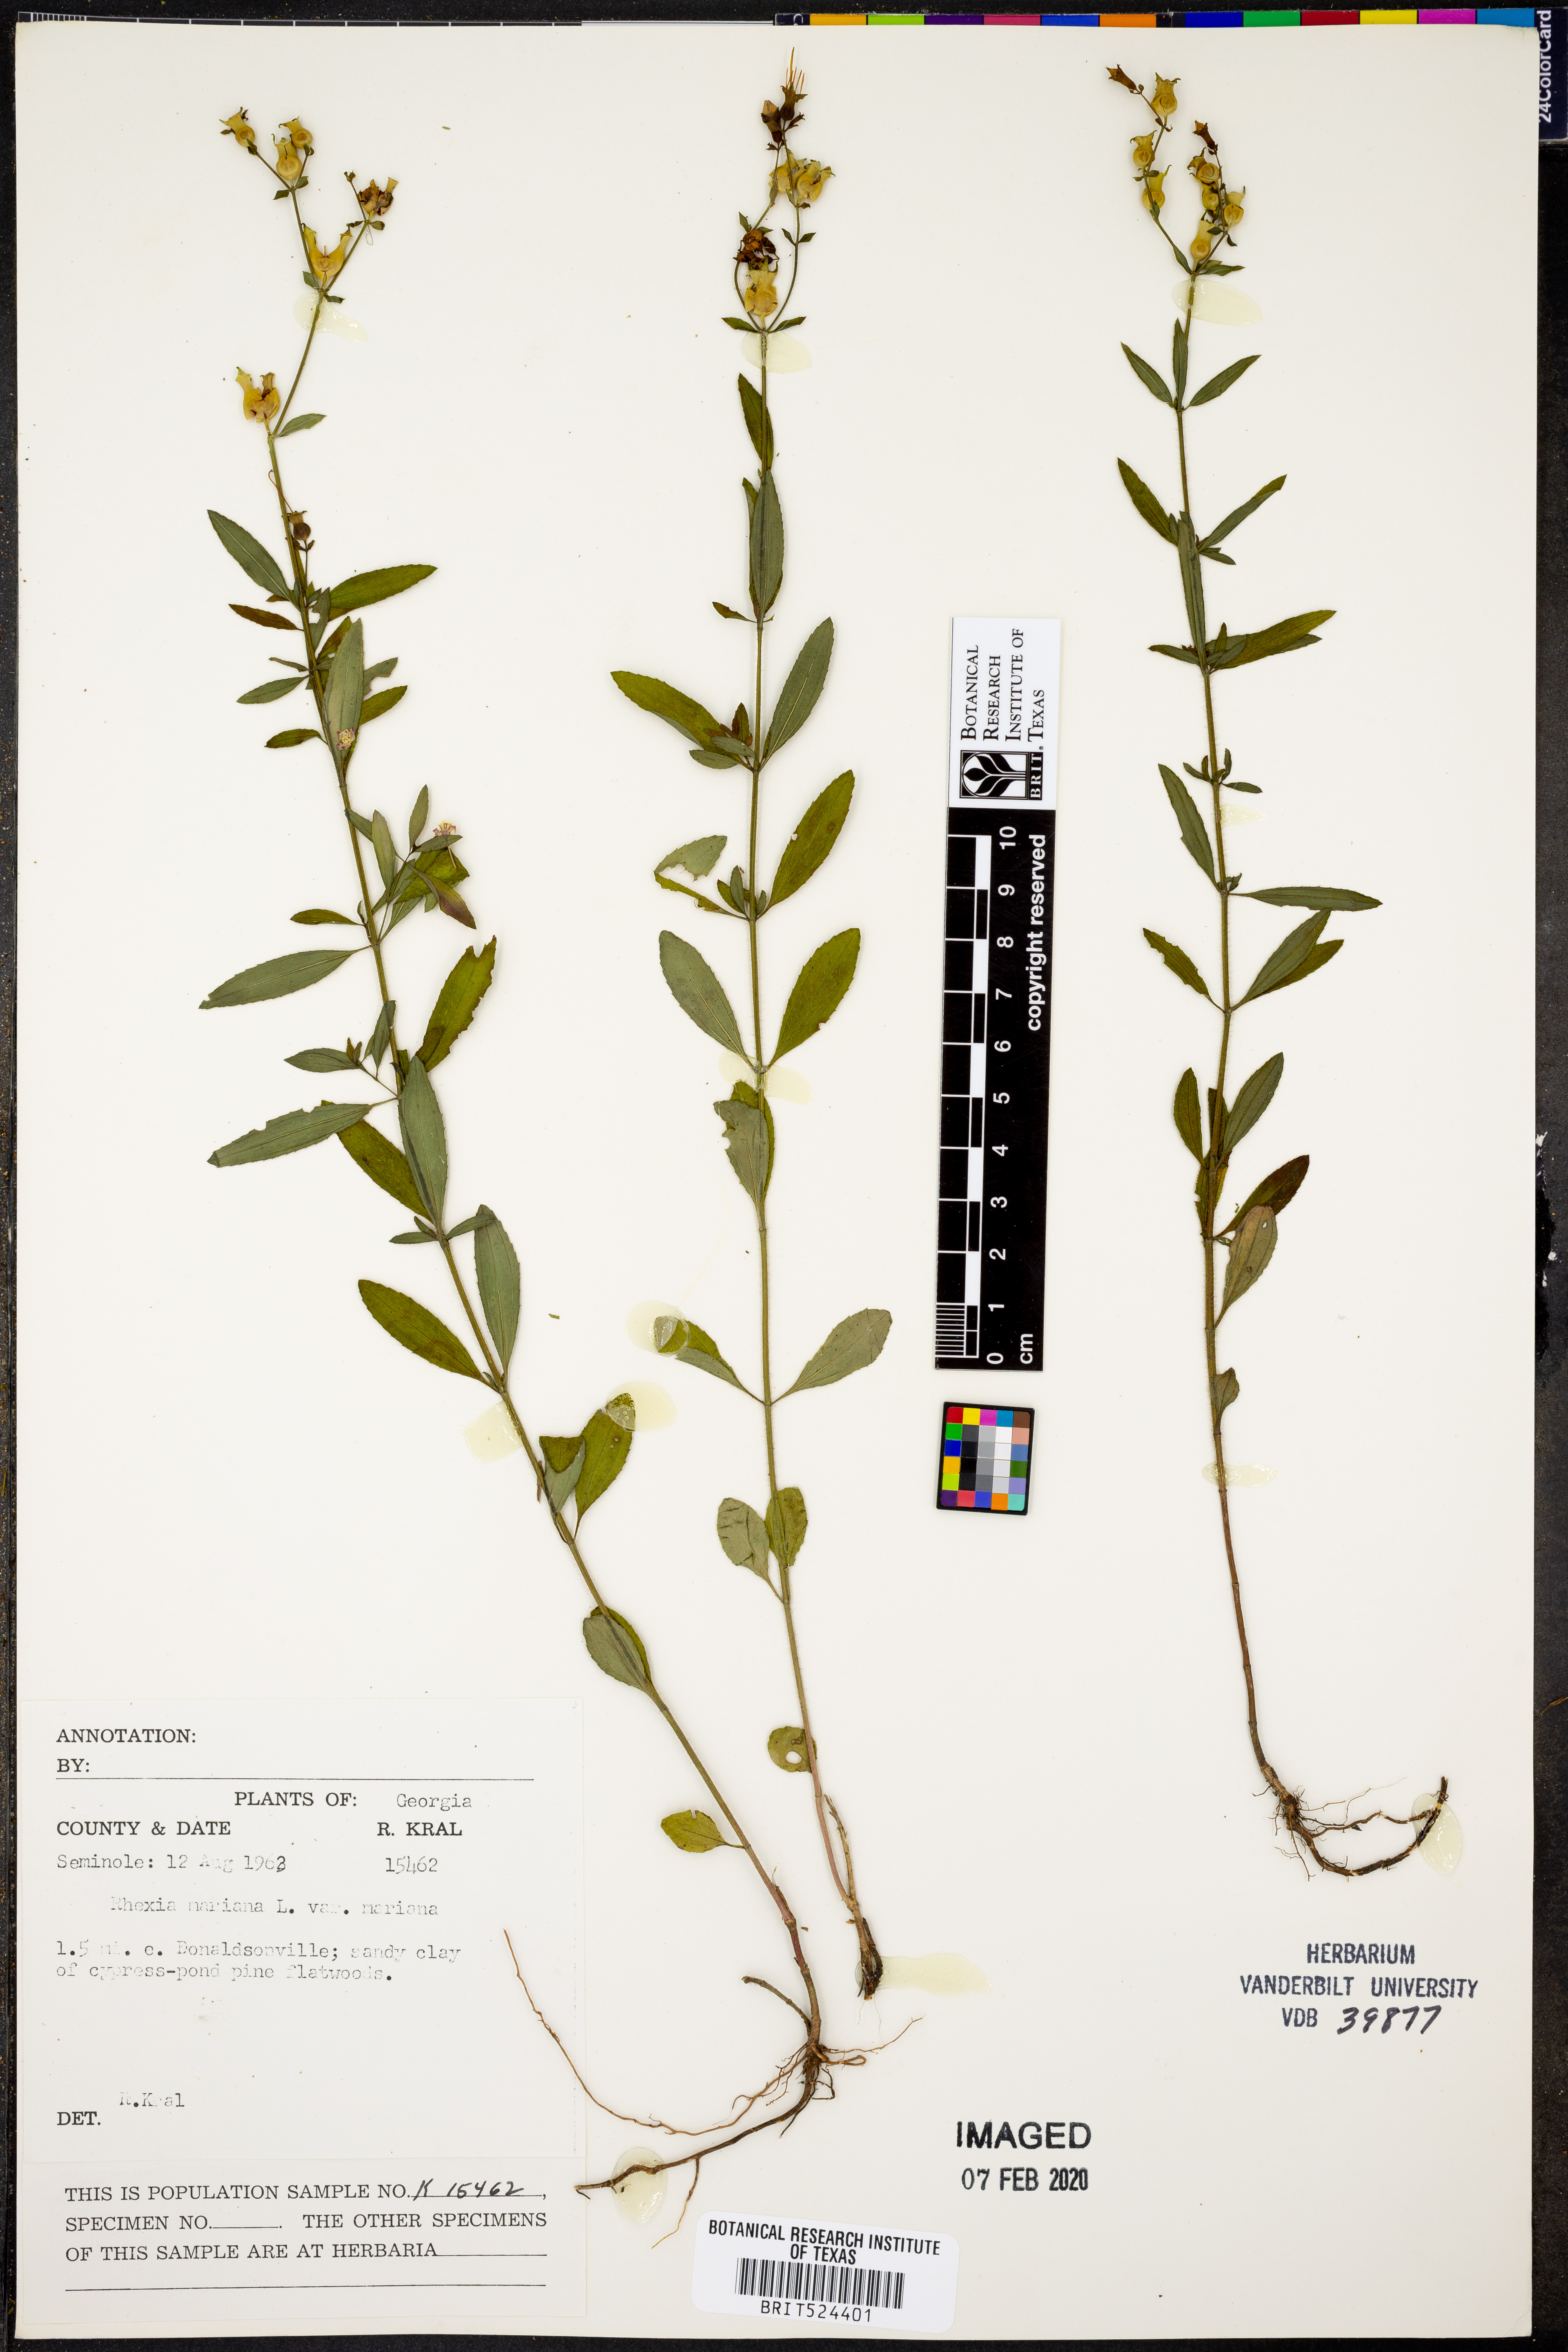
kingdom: Plantae
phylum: Tracheophyta
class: Magnoliopsida
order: Myrtales
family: Melastomataceae
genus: Rhexia
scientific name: Rhexia mariana
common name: Dull meadow-pitcher
